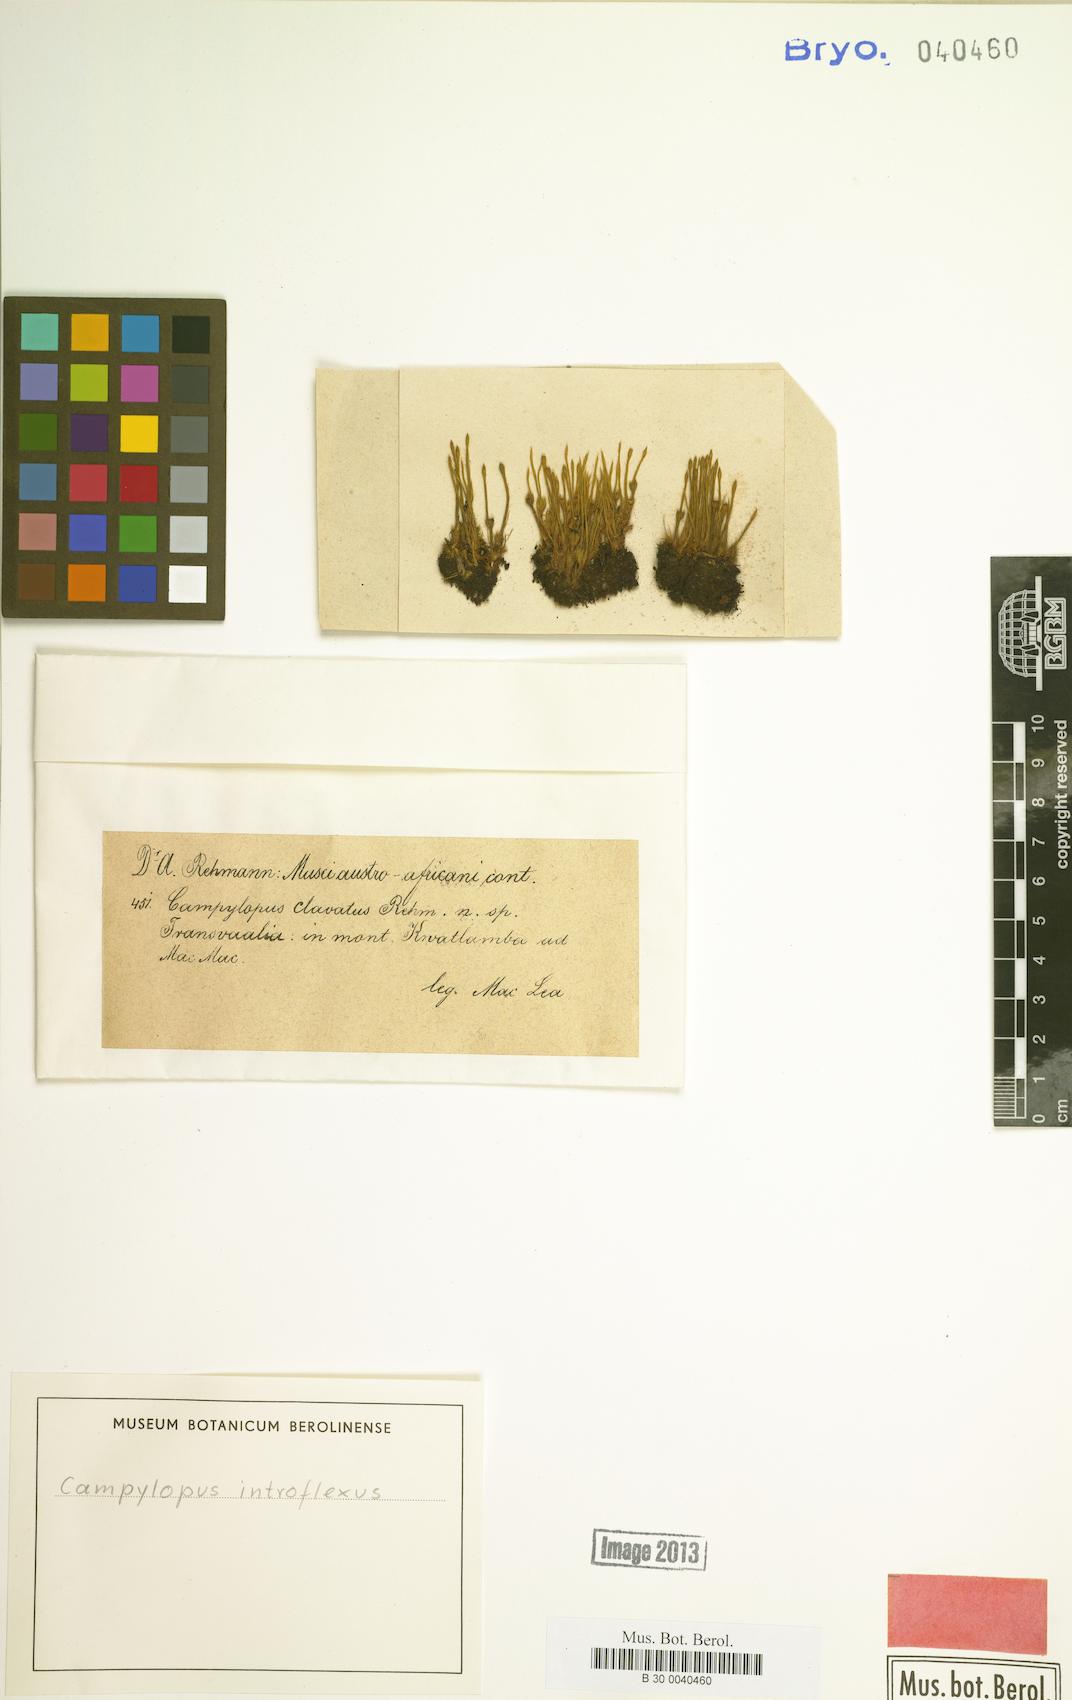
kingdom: Plantae
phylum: Bryophyta
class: Bryopsida
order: Dicranales
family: Leucobryaceae
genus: Campylopus
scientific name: Campylopus introflexus
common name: Heath star moss
